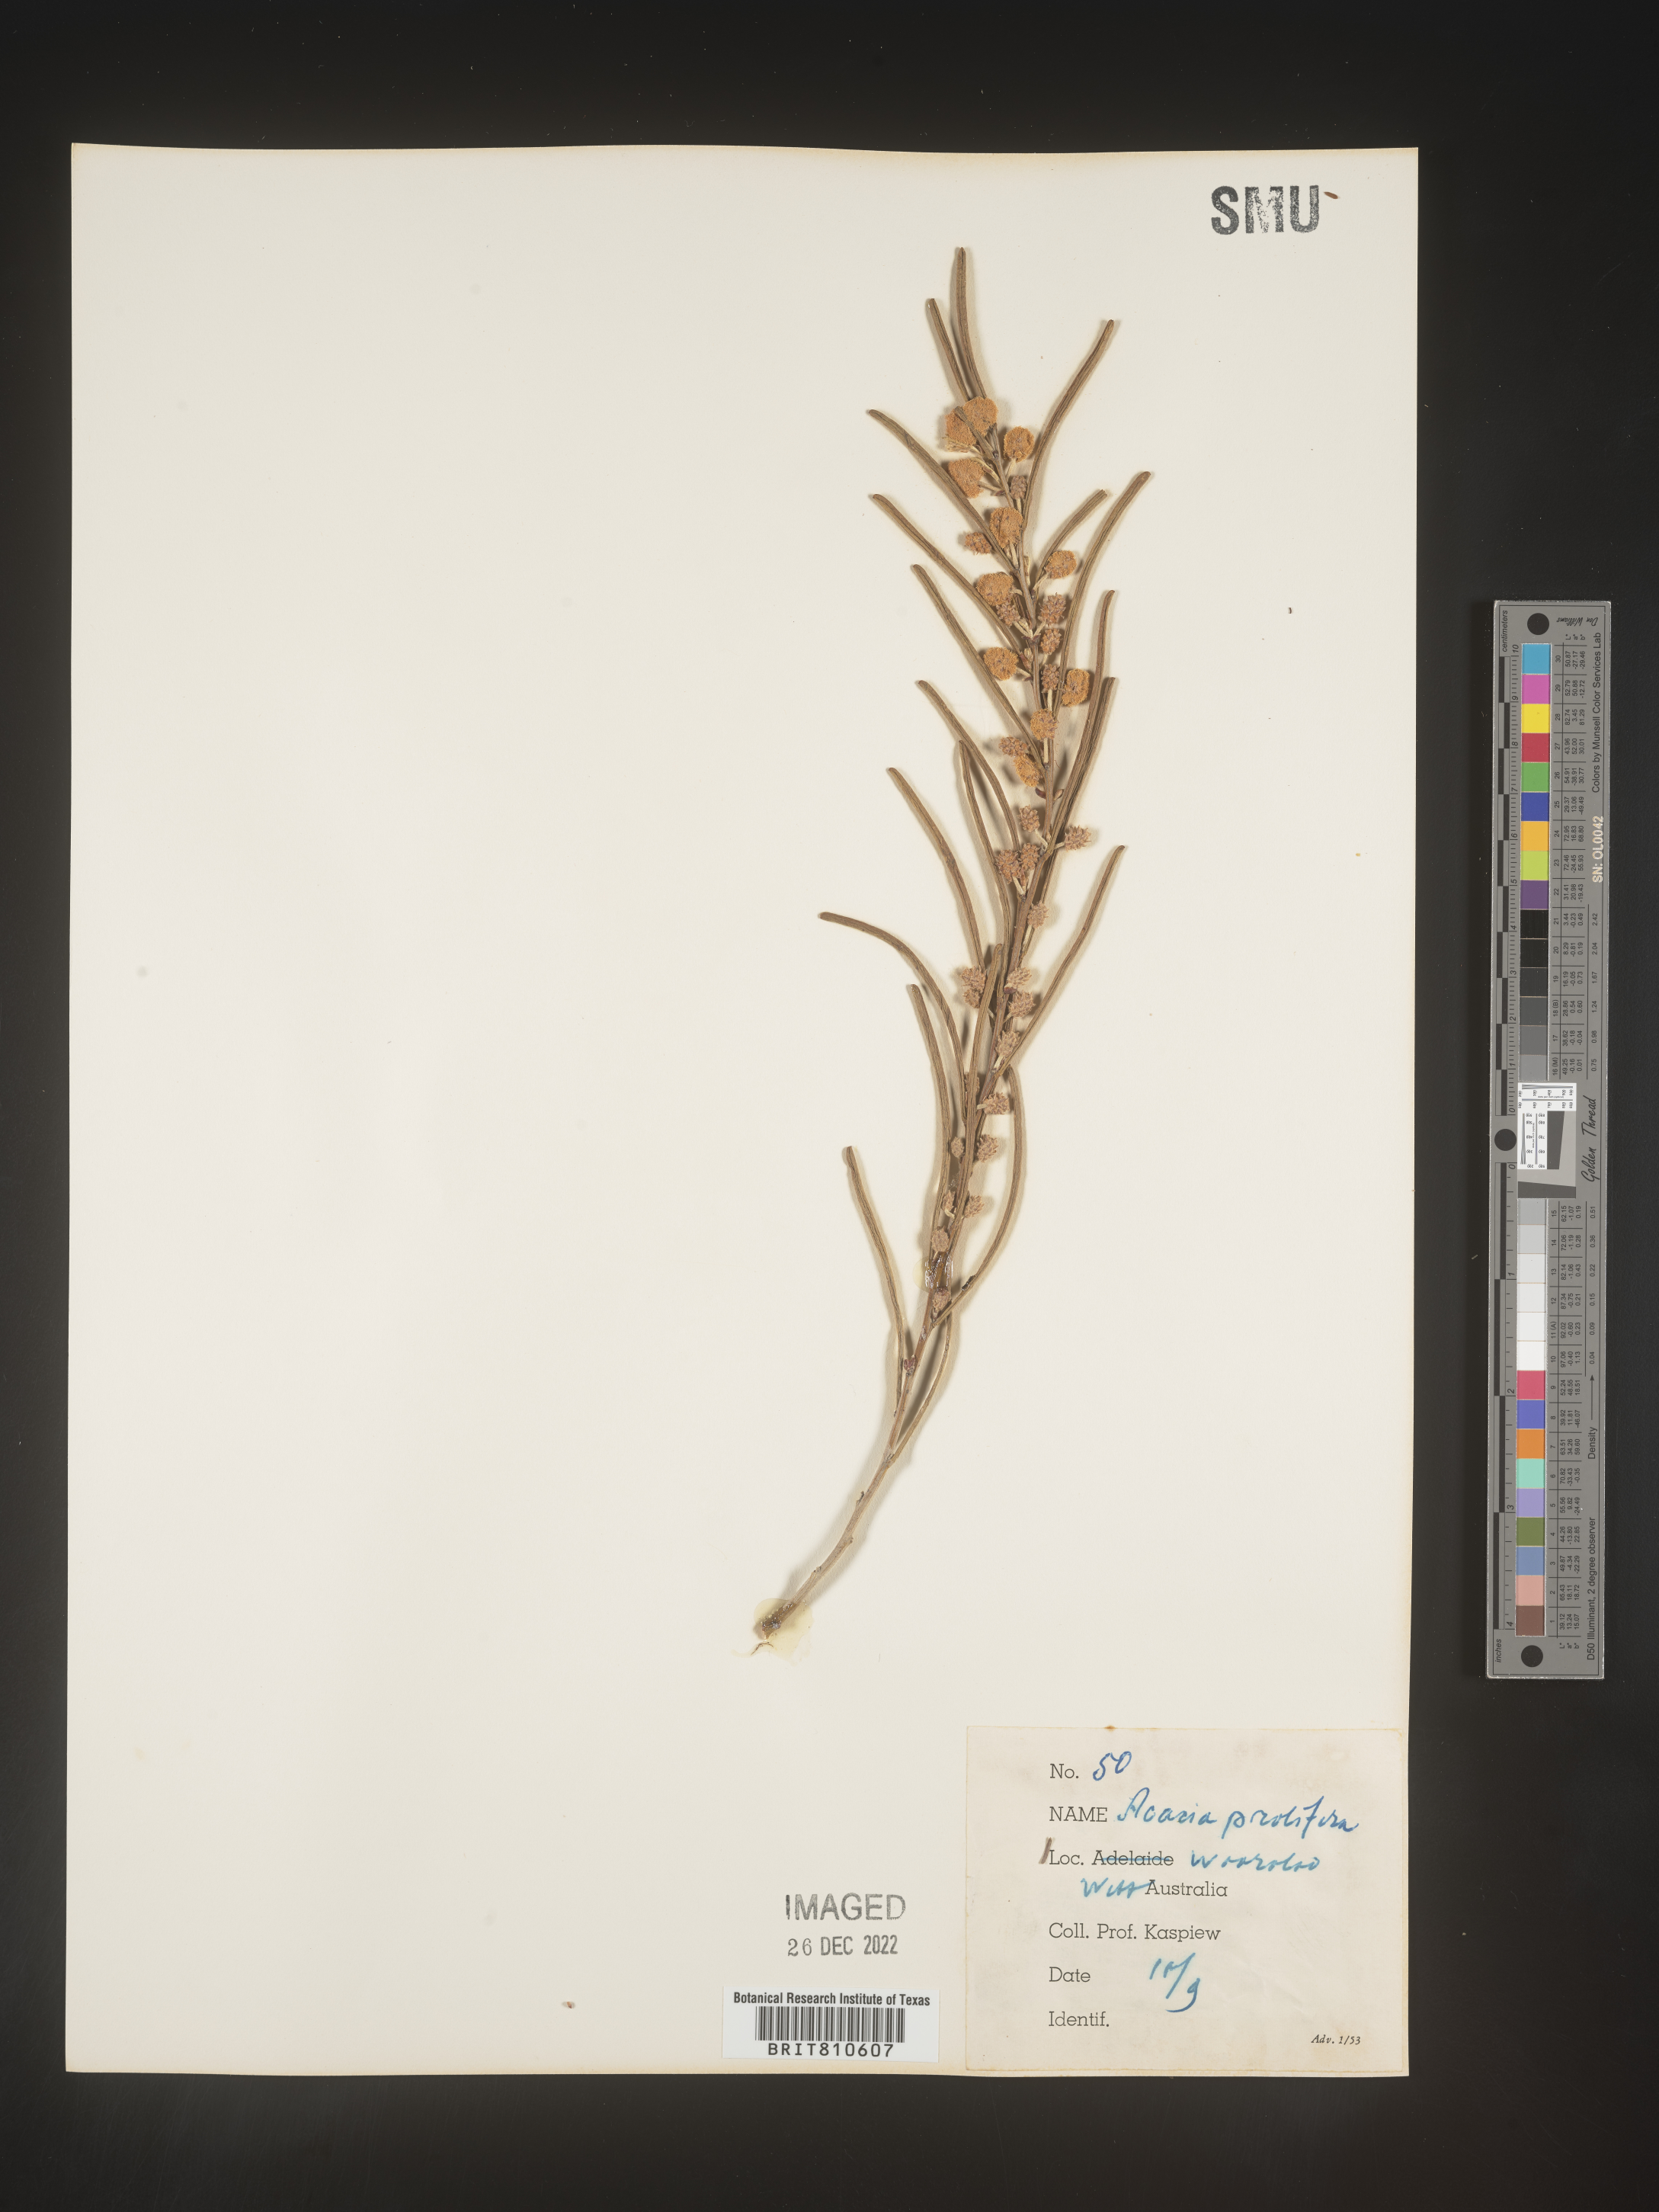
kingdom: Plantae
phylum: Tracheophyta
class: Magnoliopsida
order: Fabales
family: Fabaceae
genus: Acacia
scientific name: Acacia
